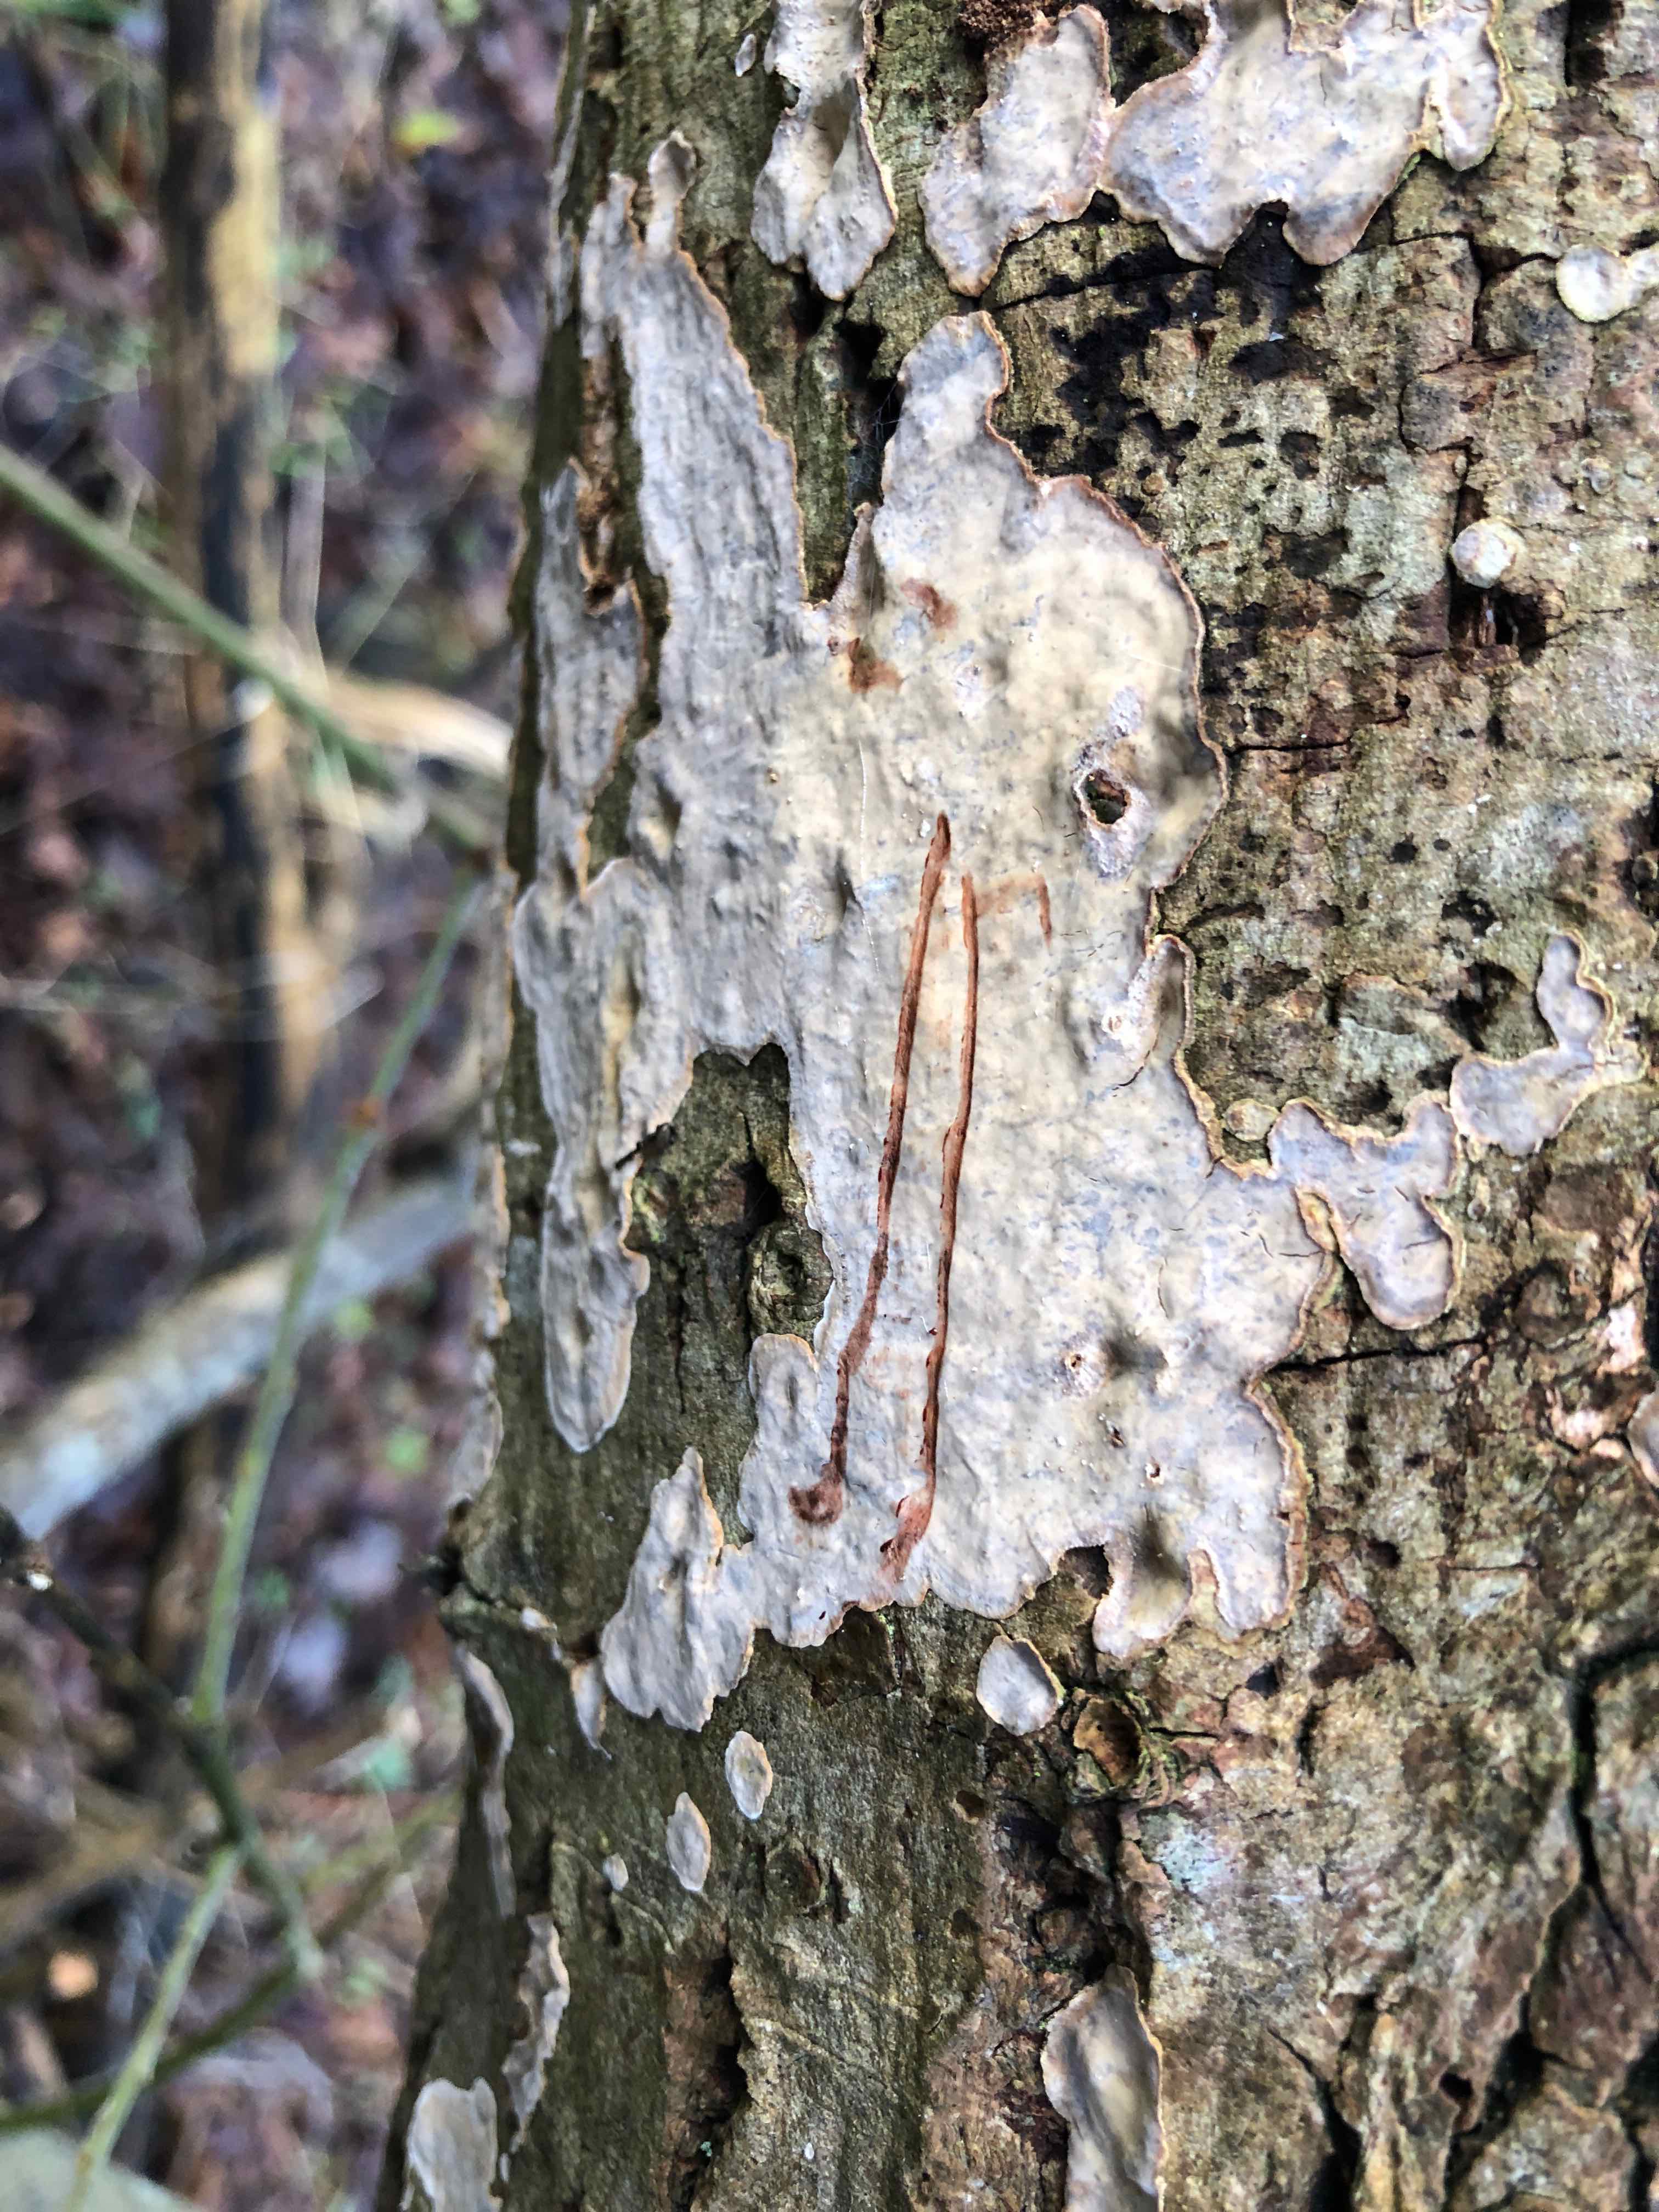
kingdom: Fungi
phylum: Basidiomycota
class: Agaricomycetes
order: Russulales
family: Stereaceae
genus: Stereum
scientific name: Stereum rugosum
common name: rynket lædersvamp
